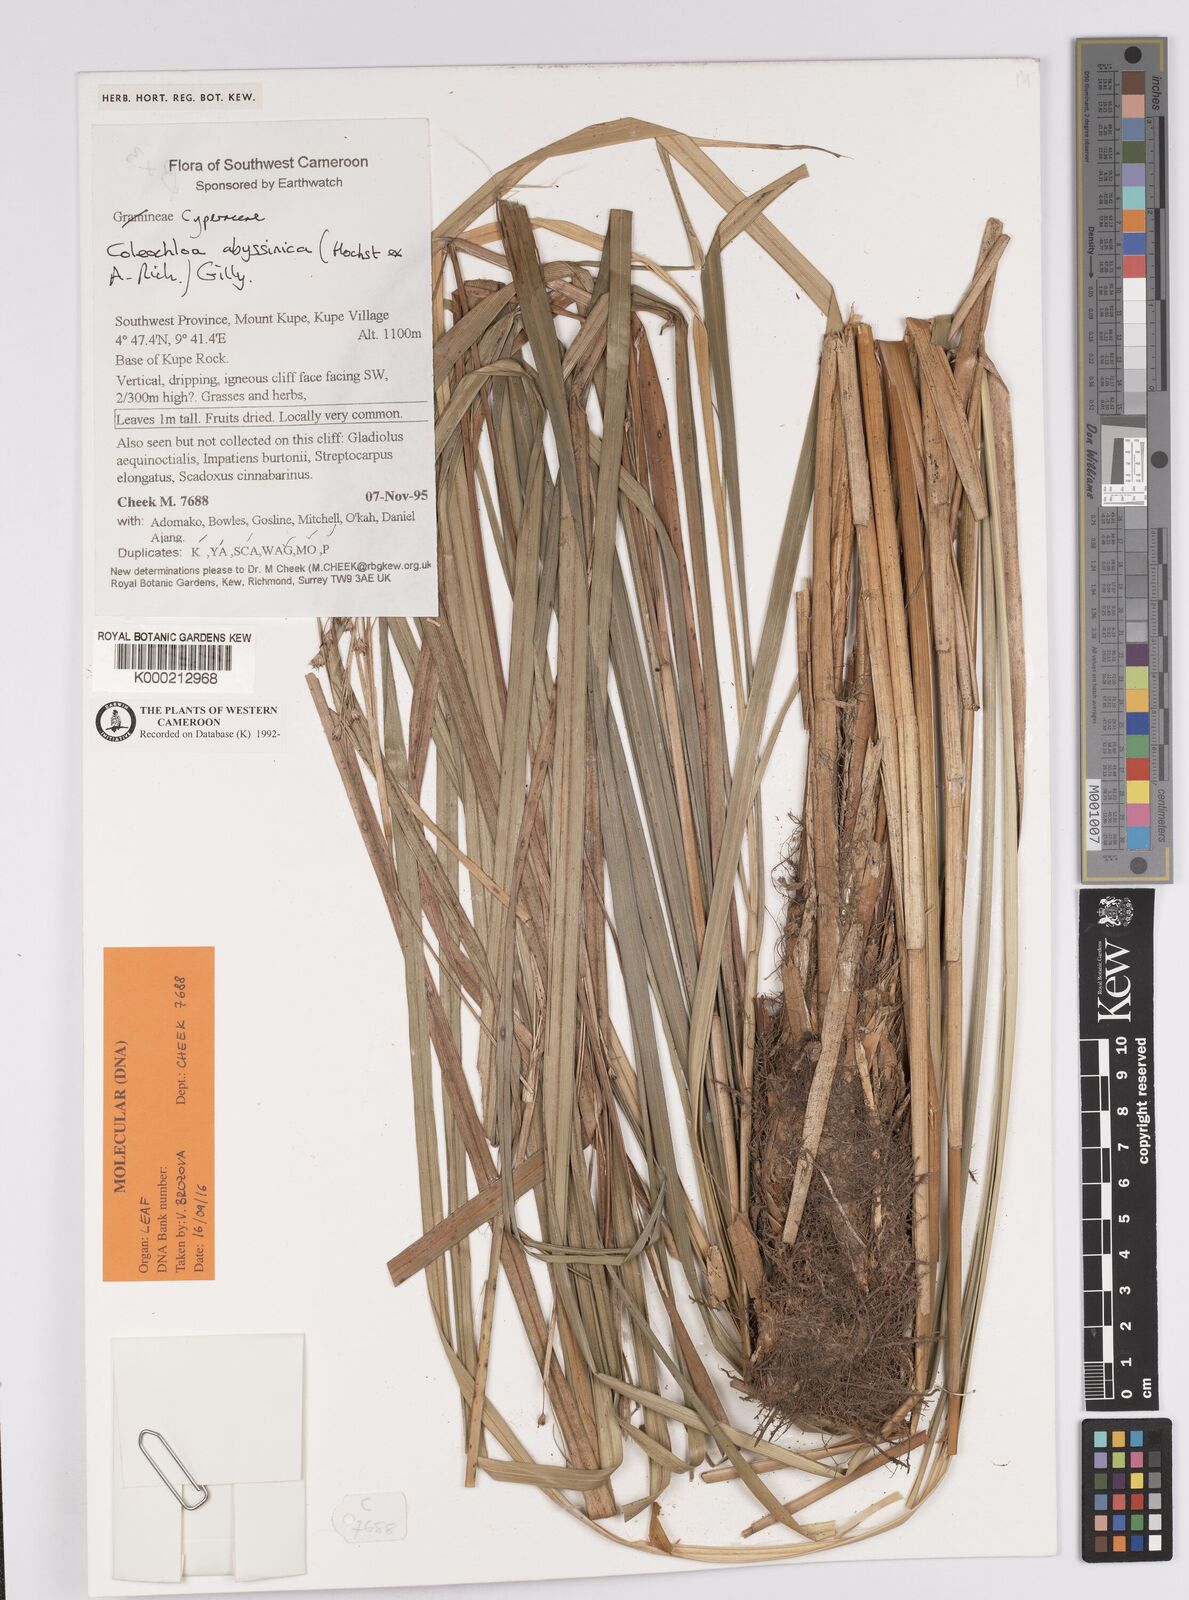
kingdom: Plantae
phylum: Tracheophyta
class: Liliopsida
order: Poales
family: Cyperaceae
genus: Coleochloa
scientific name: Coleochloa abyssinica
